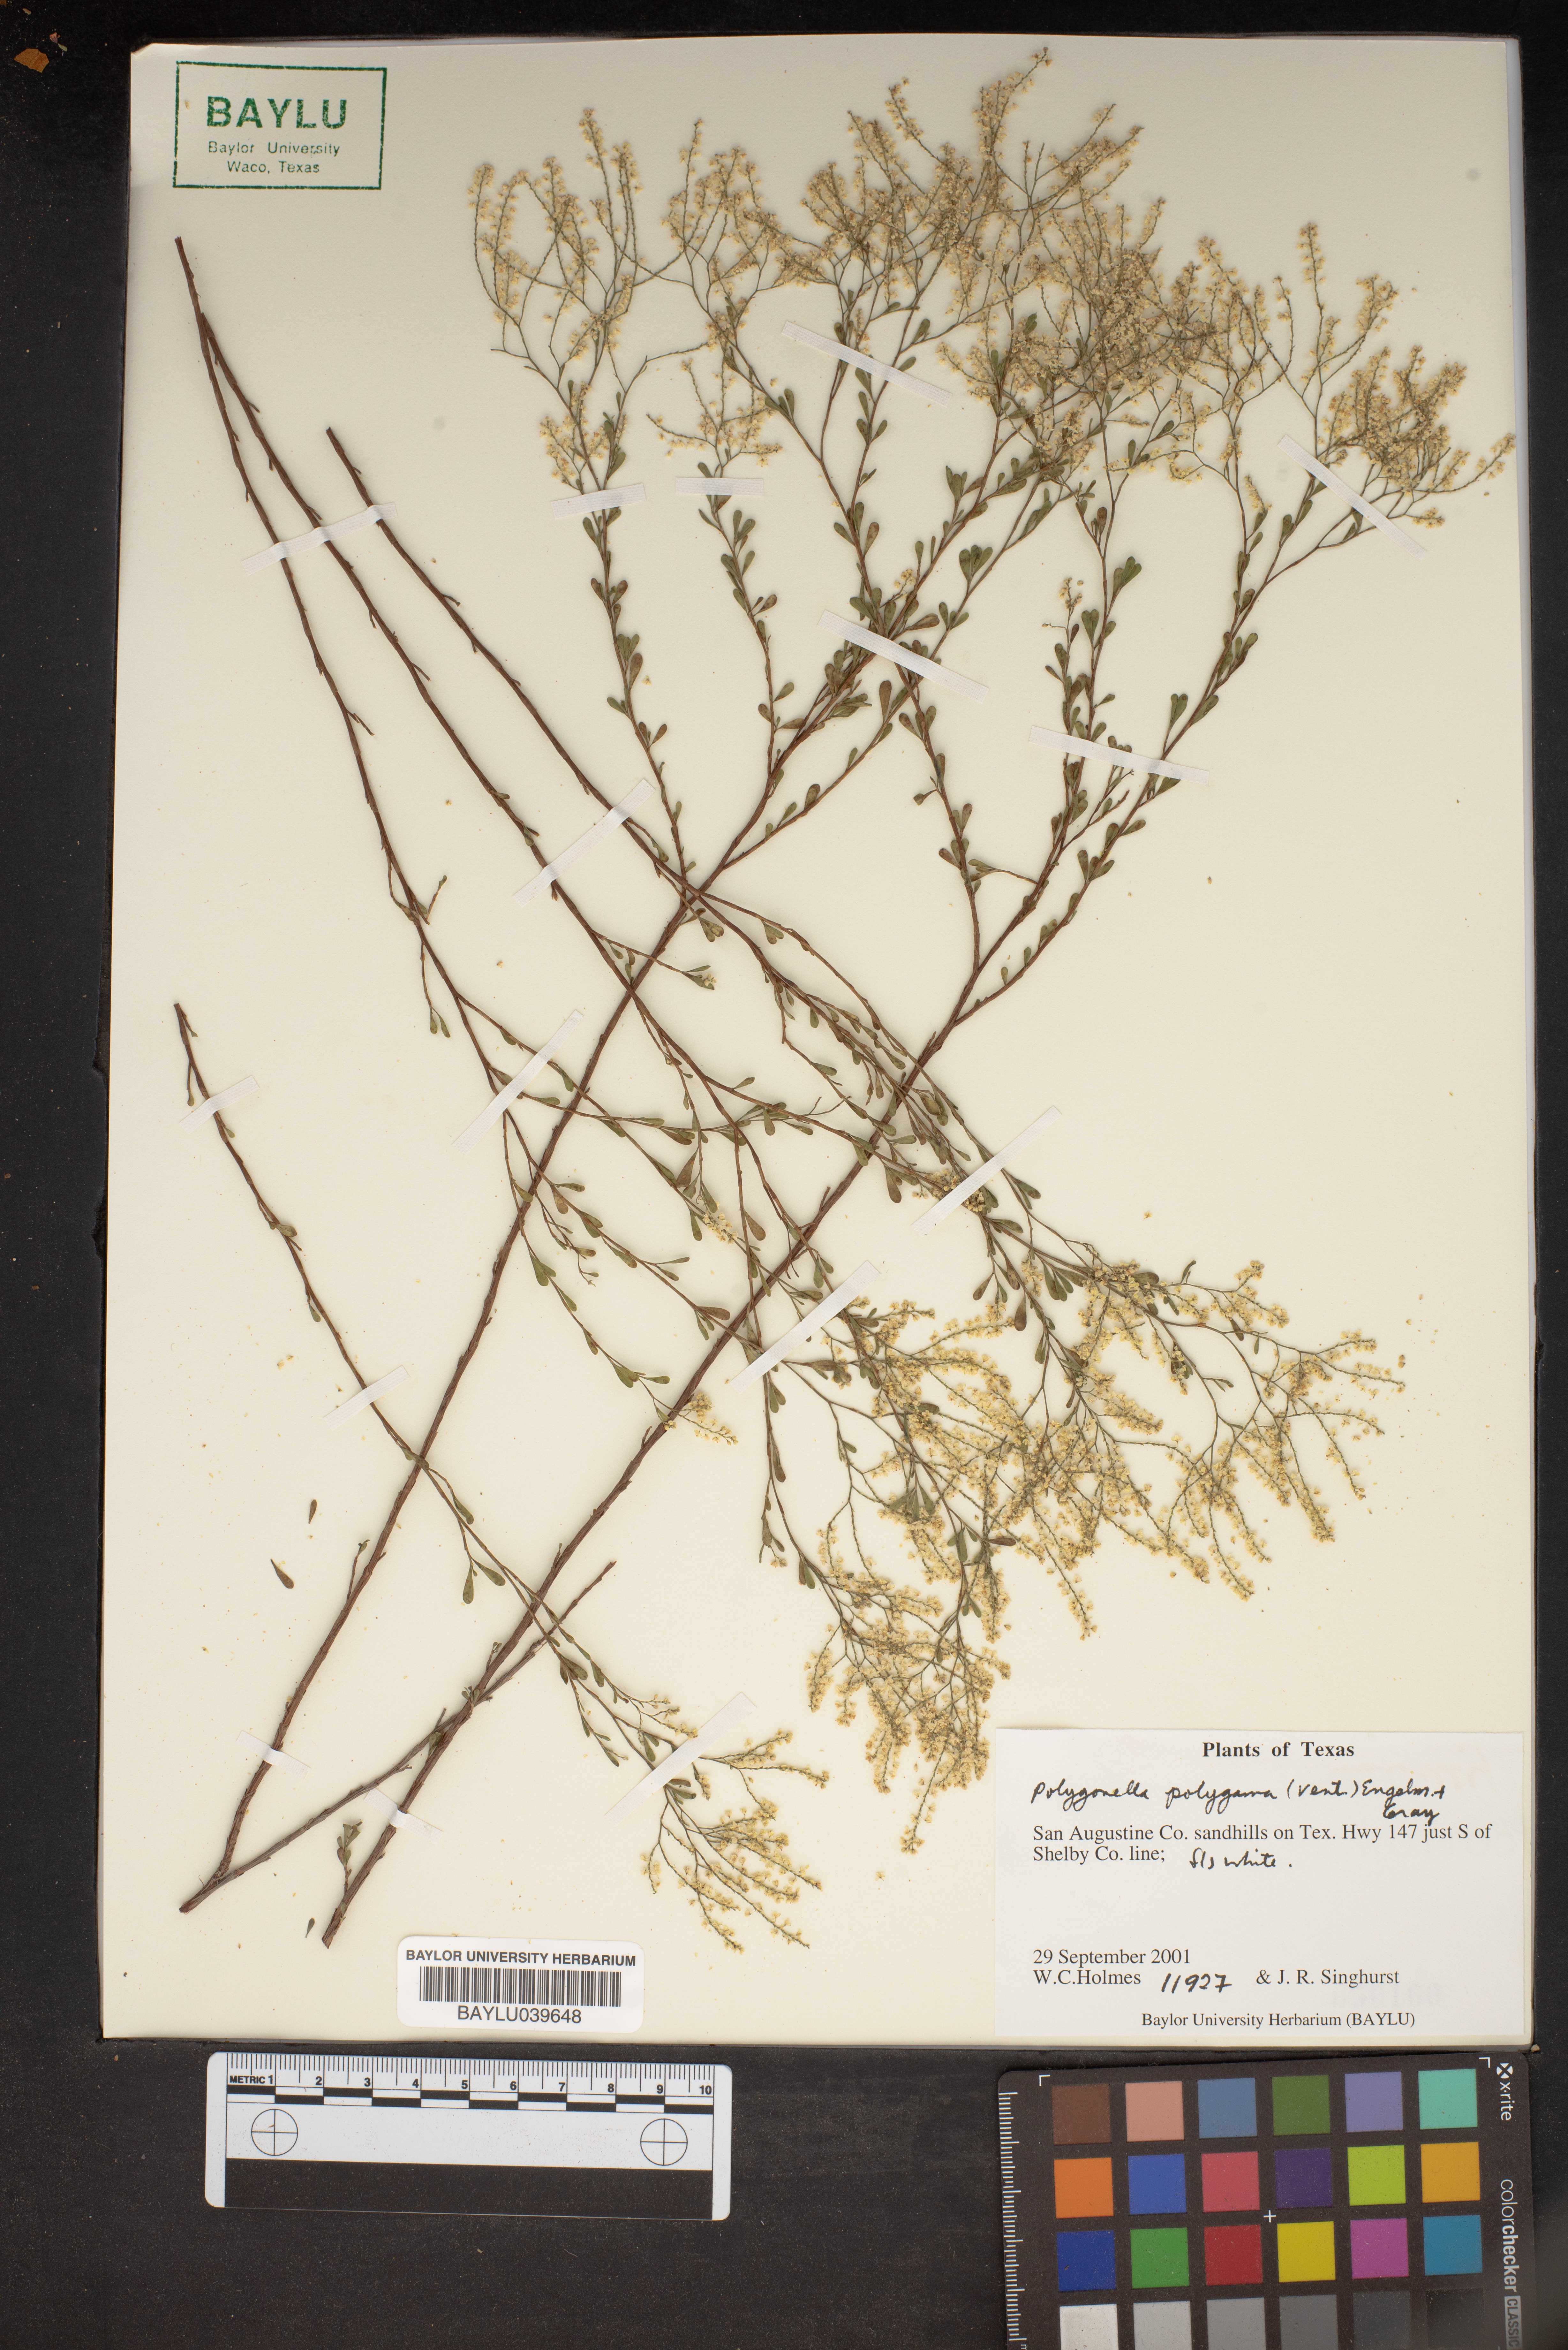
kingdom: Plantae
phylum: Tracheophyta
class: Magnoliopsida
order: Caryophyllales
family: Polygonaceae
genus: Polygonella
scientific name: Polygonella polygama
